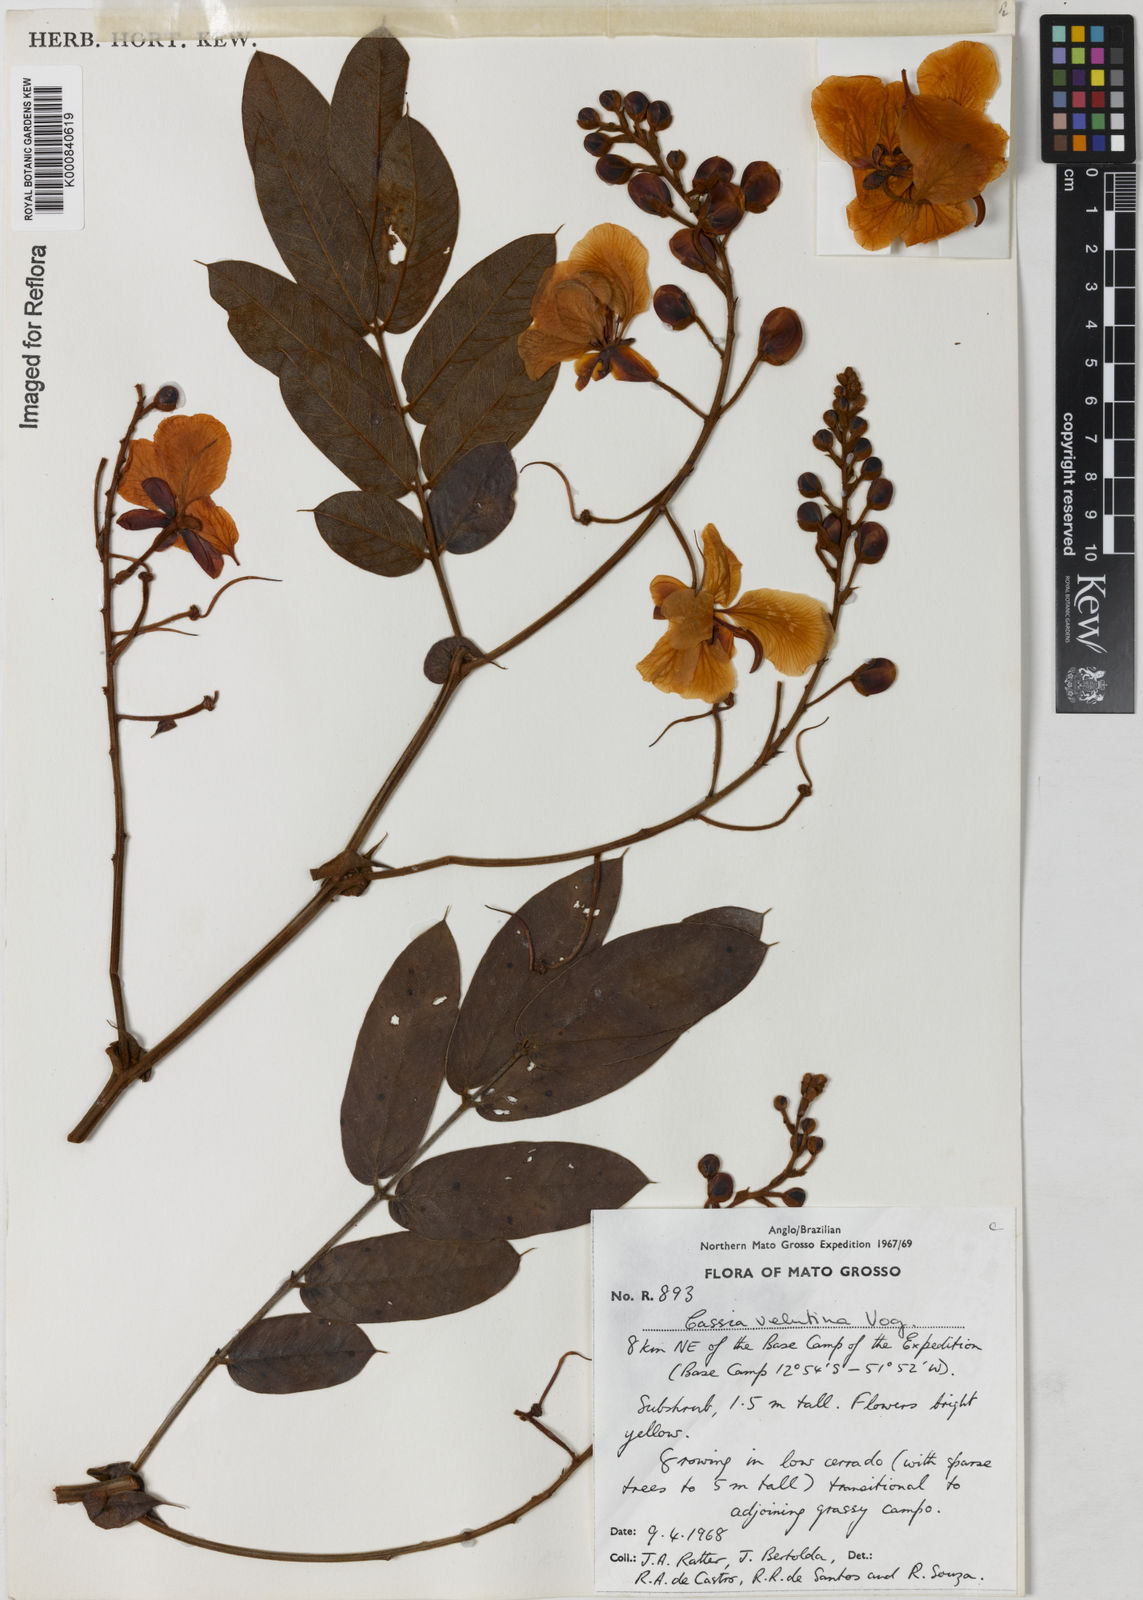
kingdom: Plantae
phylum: Tracheophyta
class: Magnoliopsida
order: Fabales
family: Fabaceae
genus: Senna
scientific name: Senna velutina
